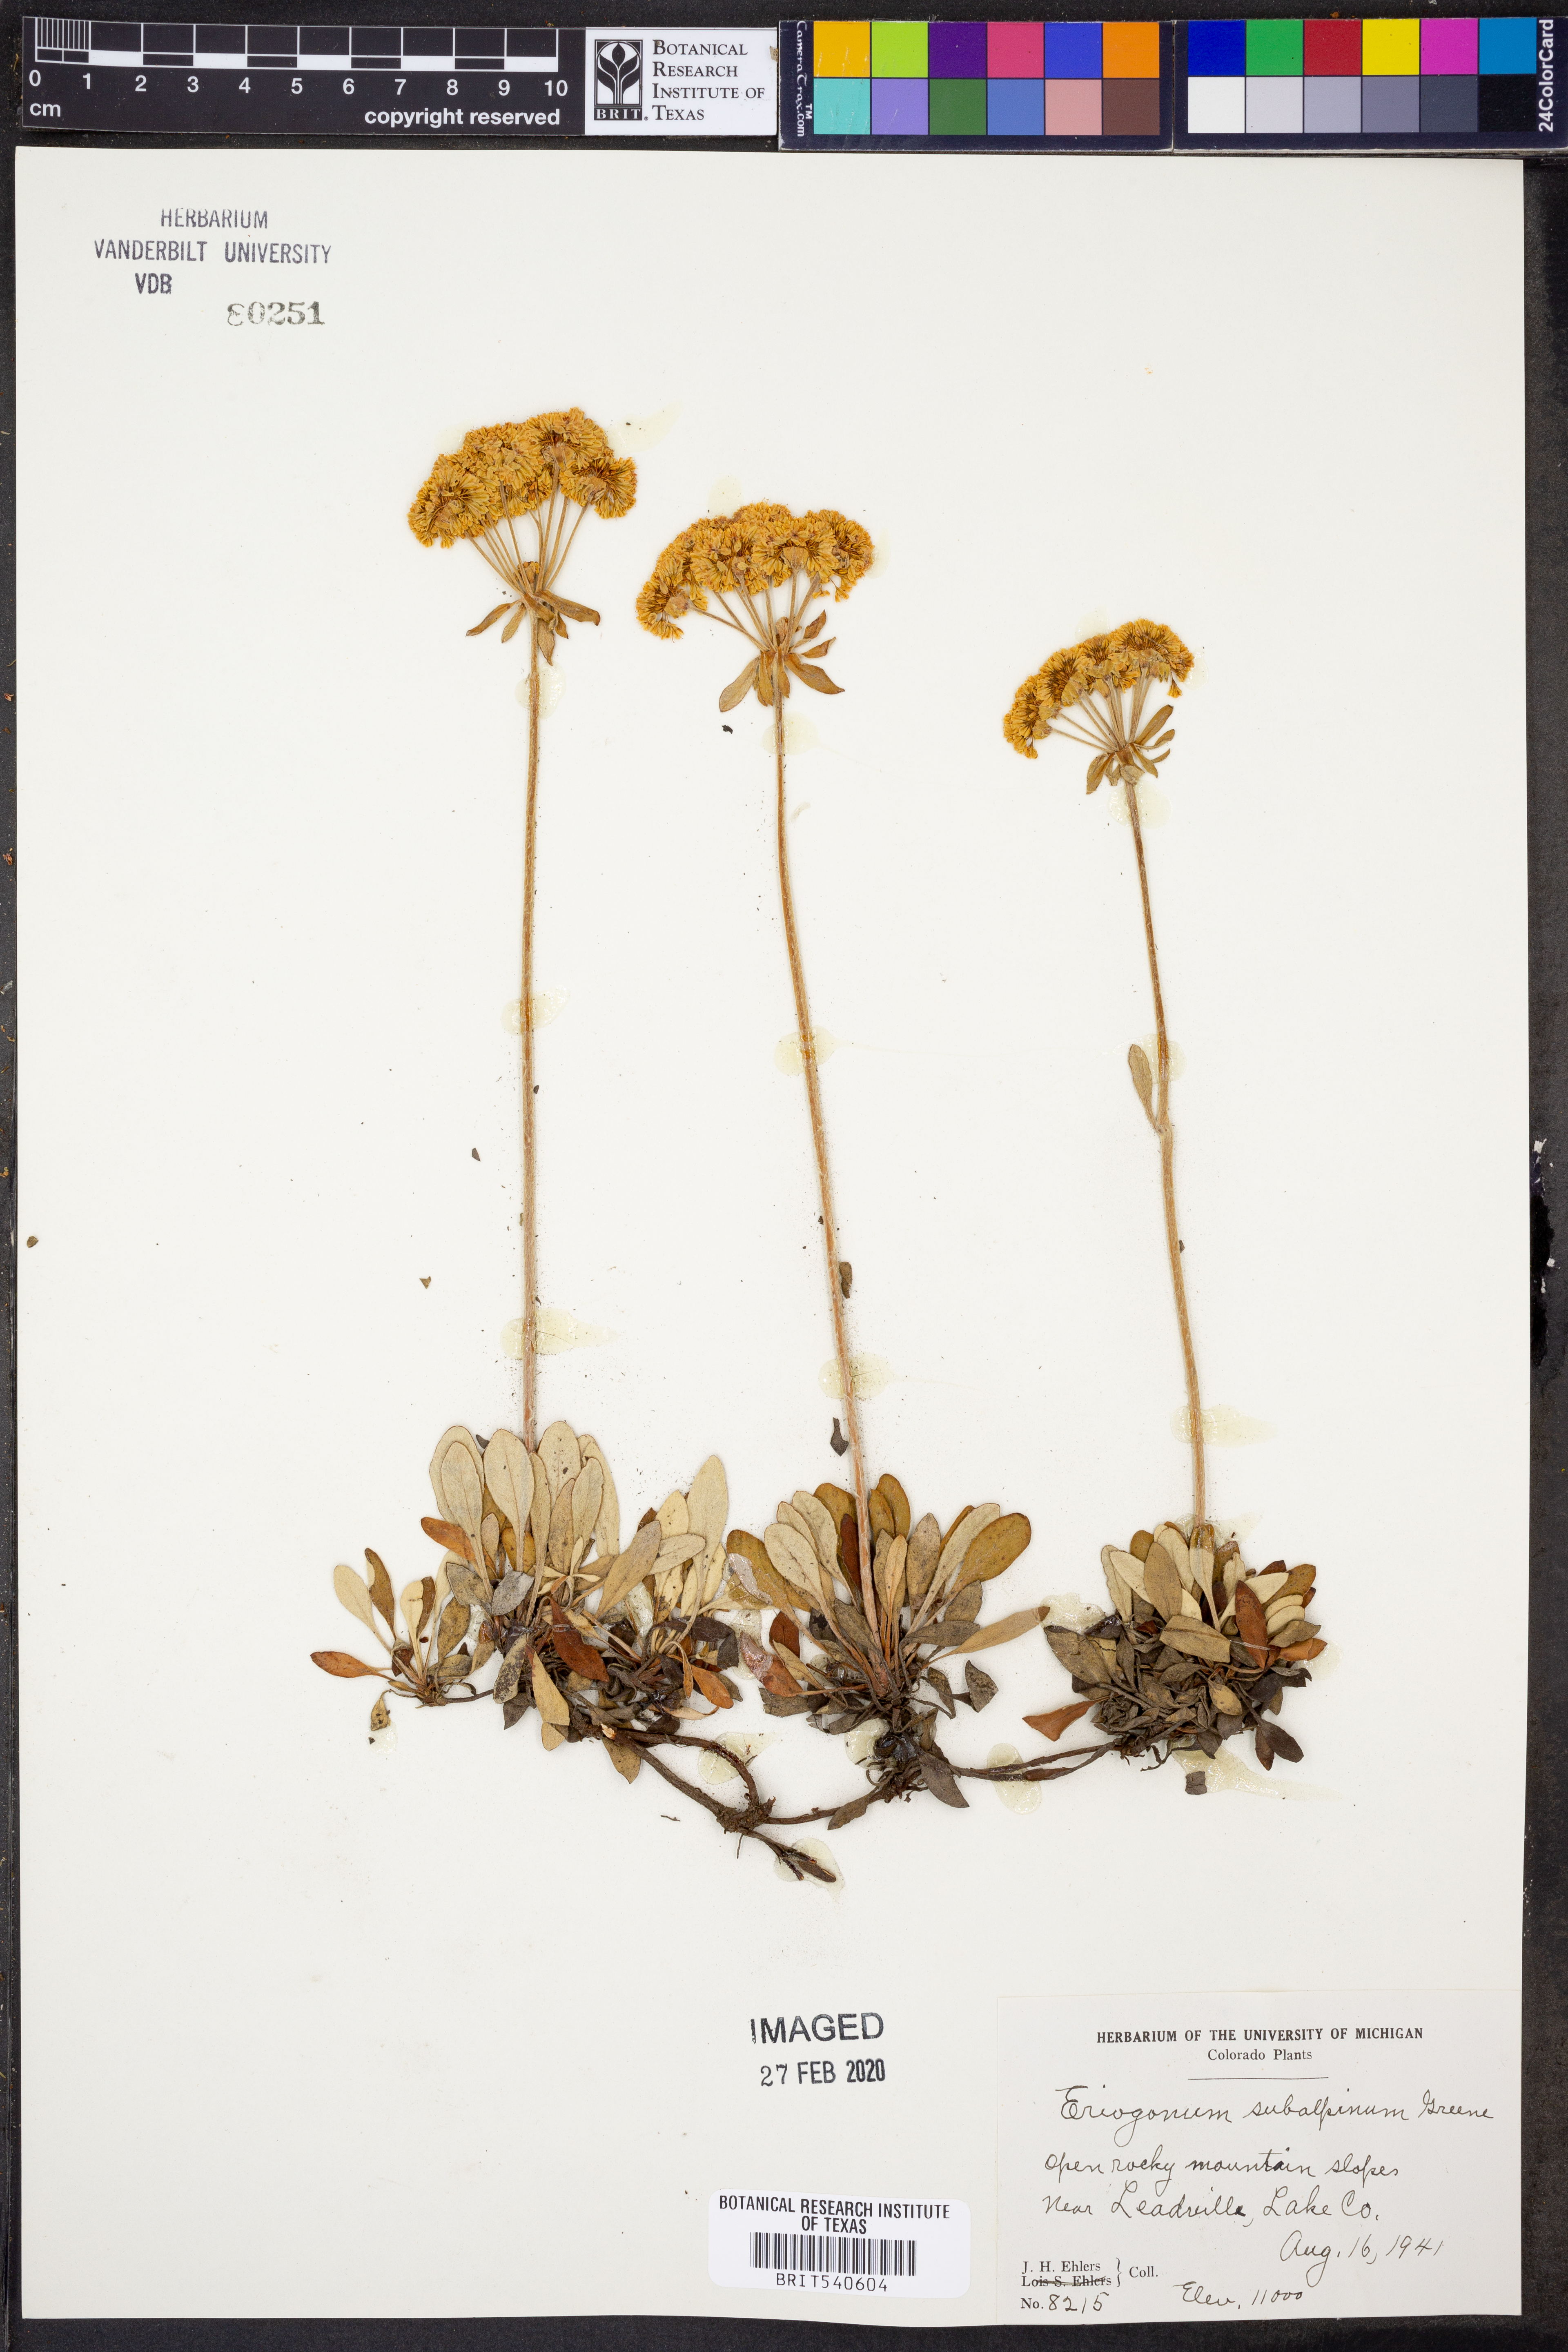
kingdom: Plantae
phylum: Tracheophyta
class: Magnoliopsida
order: Caryophyllales
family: Polygonaceae
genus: Eriogonum
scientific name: Eriogonum umbellatum
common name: Sulfur-buckwheat
